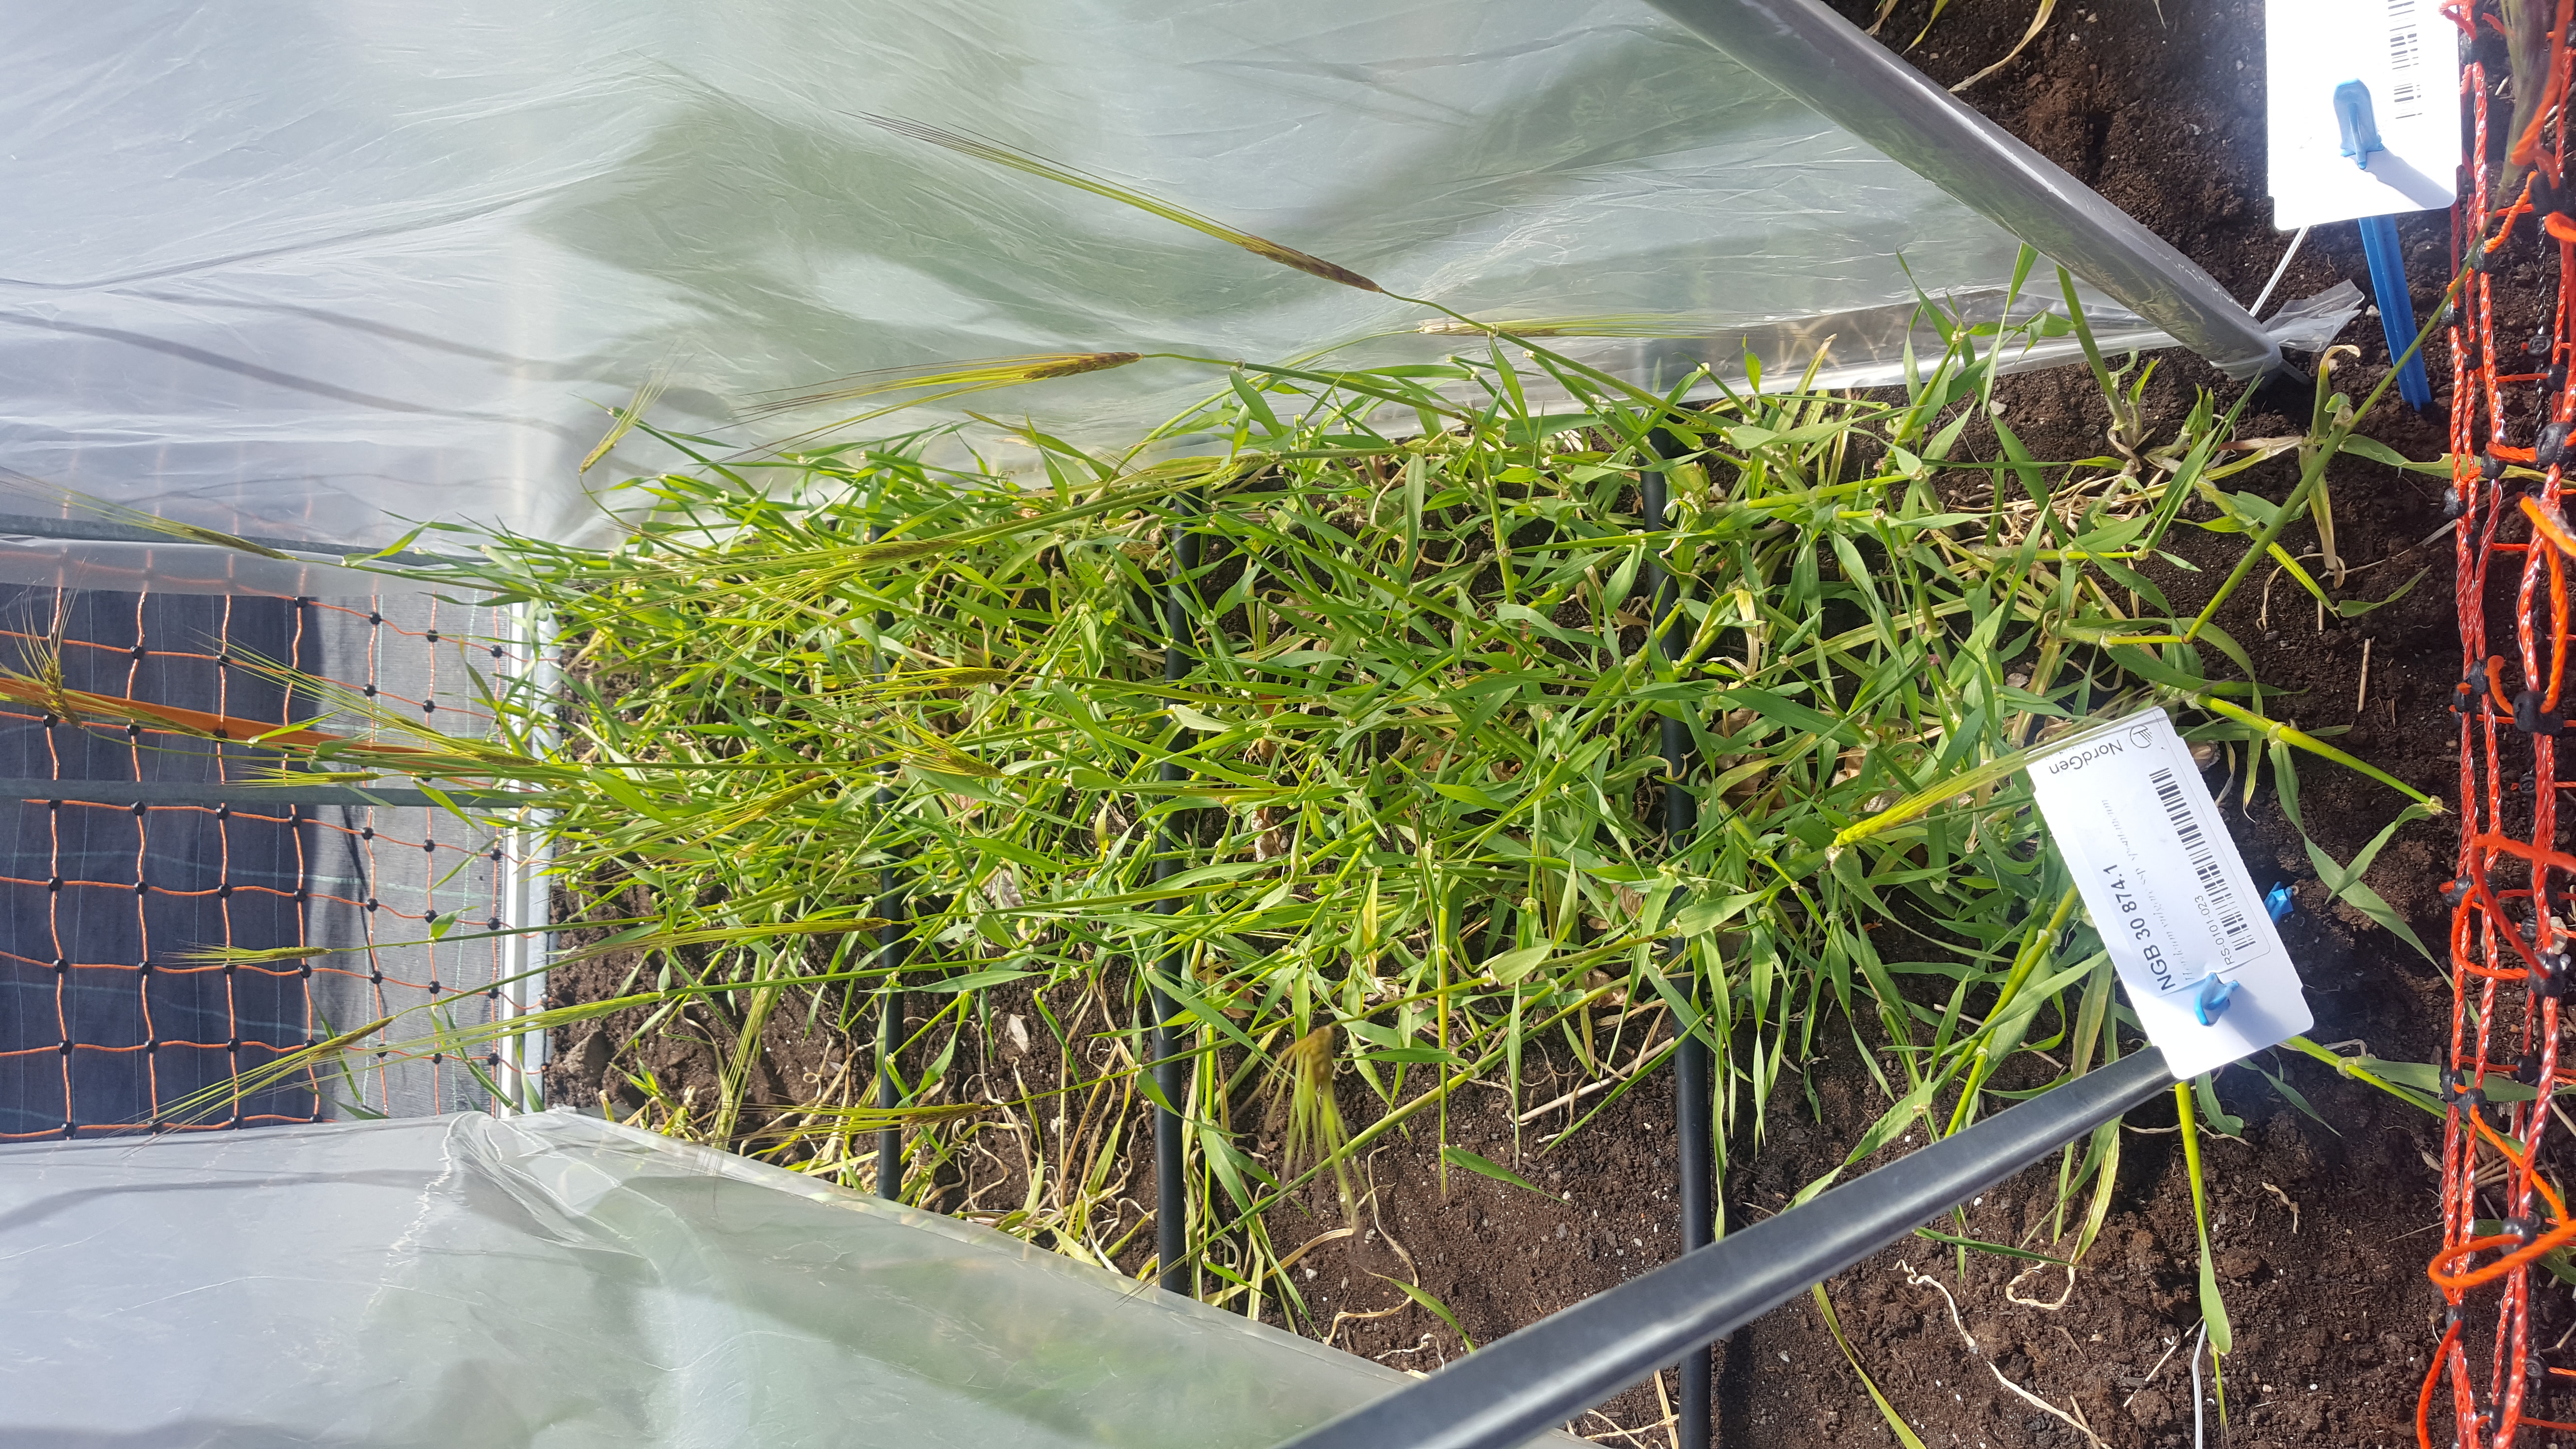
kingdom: Plantae
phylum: Tracheophyta
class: Liliopsida
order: Poales
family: Poaceae
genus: Hordeum
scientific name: Hordeum spontaneum
